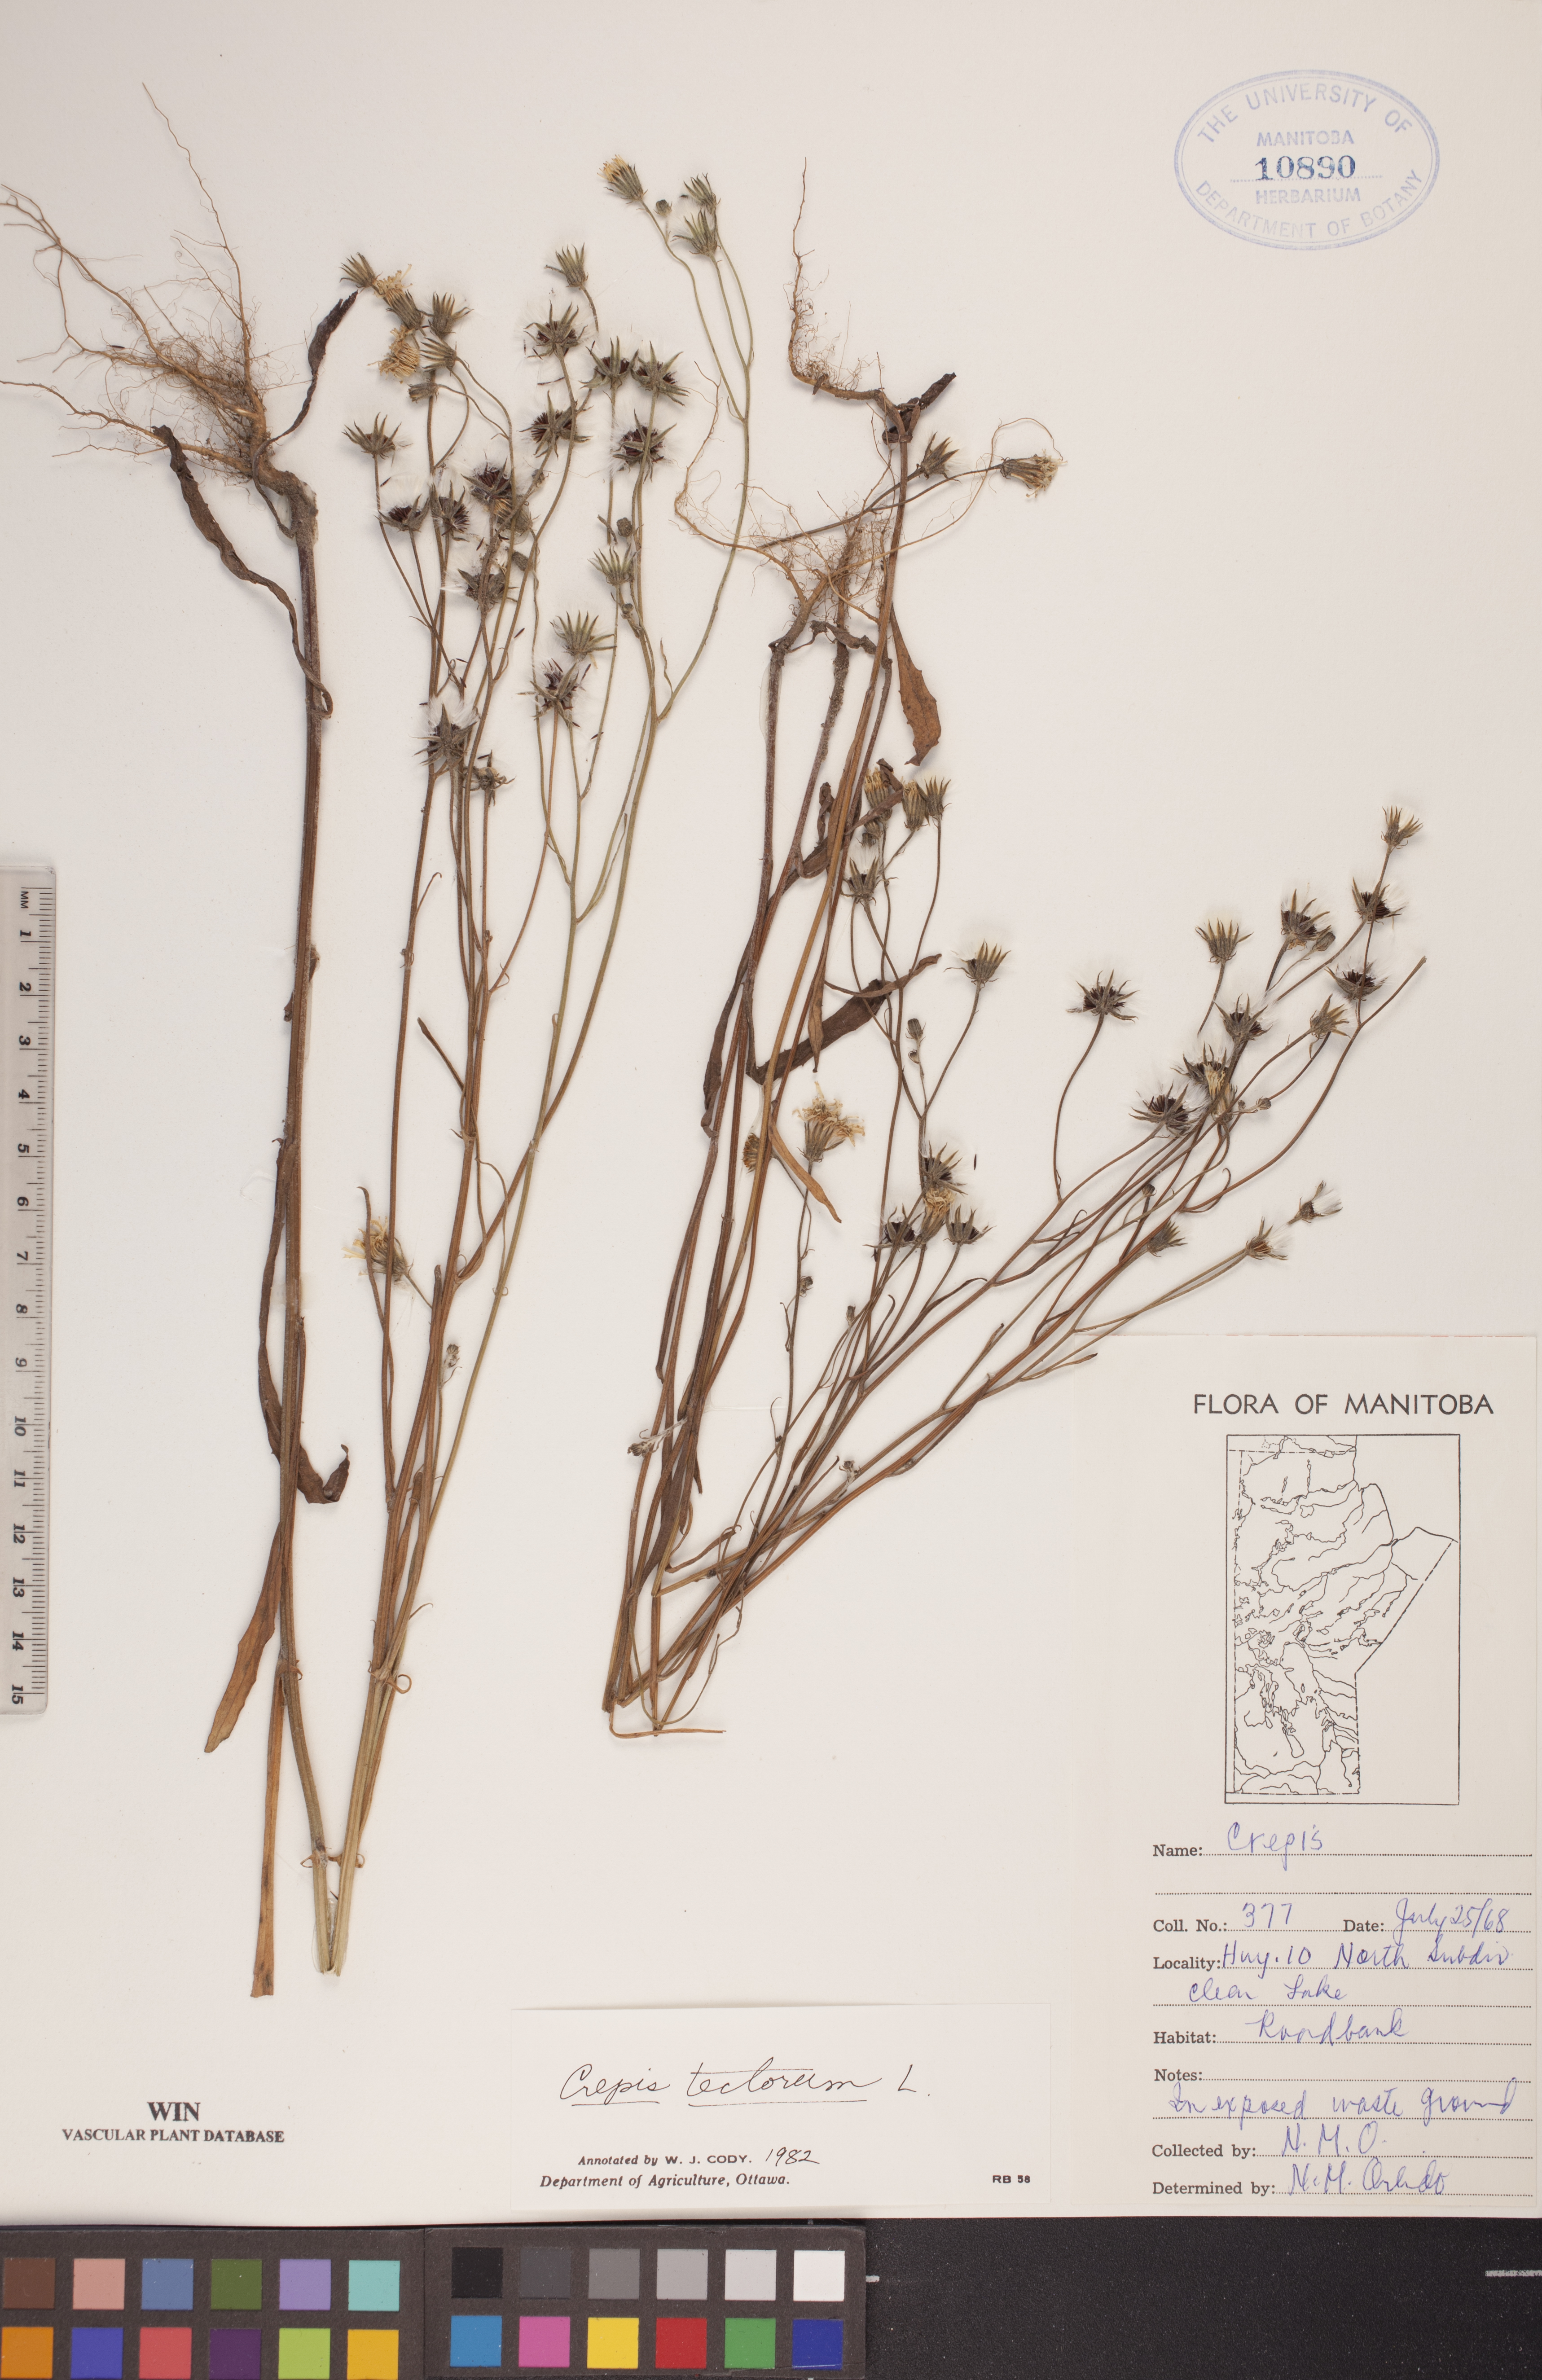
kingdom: Plantae
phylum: Tracheophyta
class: Magnoliopsida
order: Asterales
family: Asteraceae
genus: Crepis
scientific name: Crepis tectorum
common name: Narrow-leaved hawk's-beard
